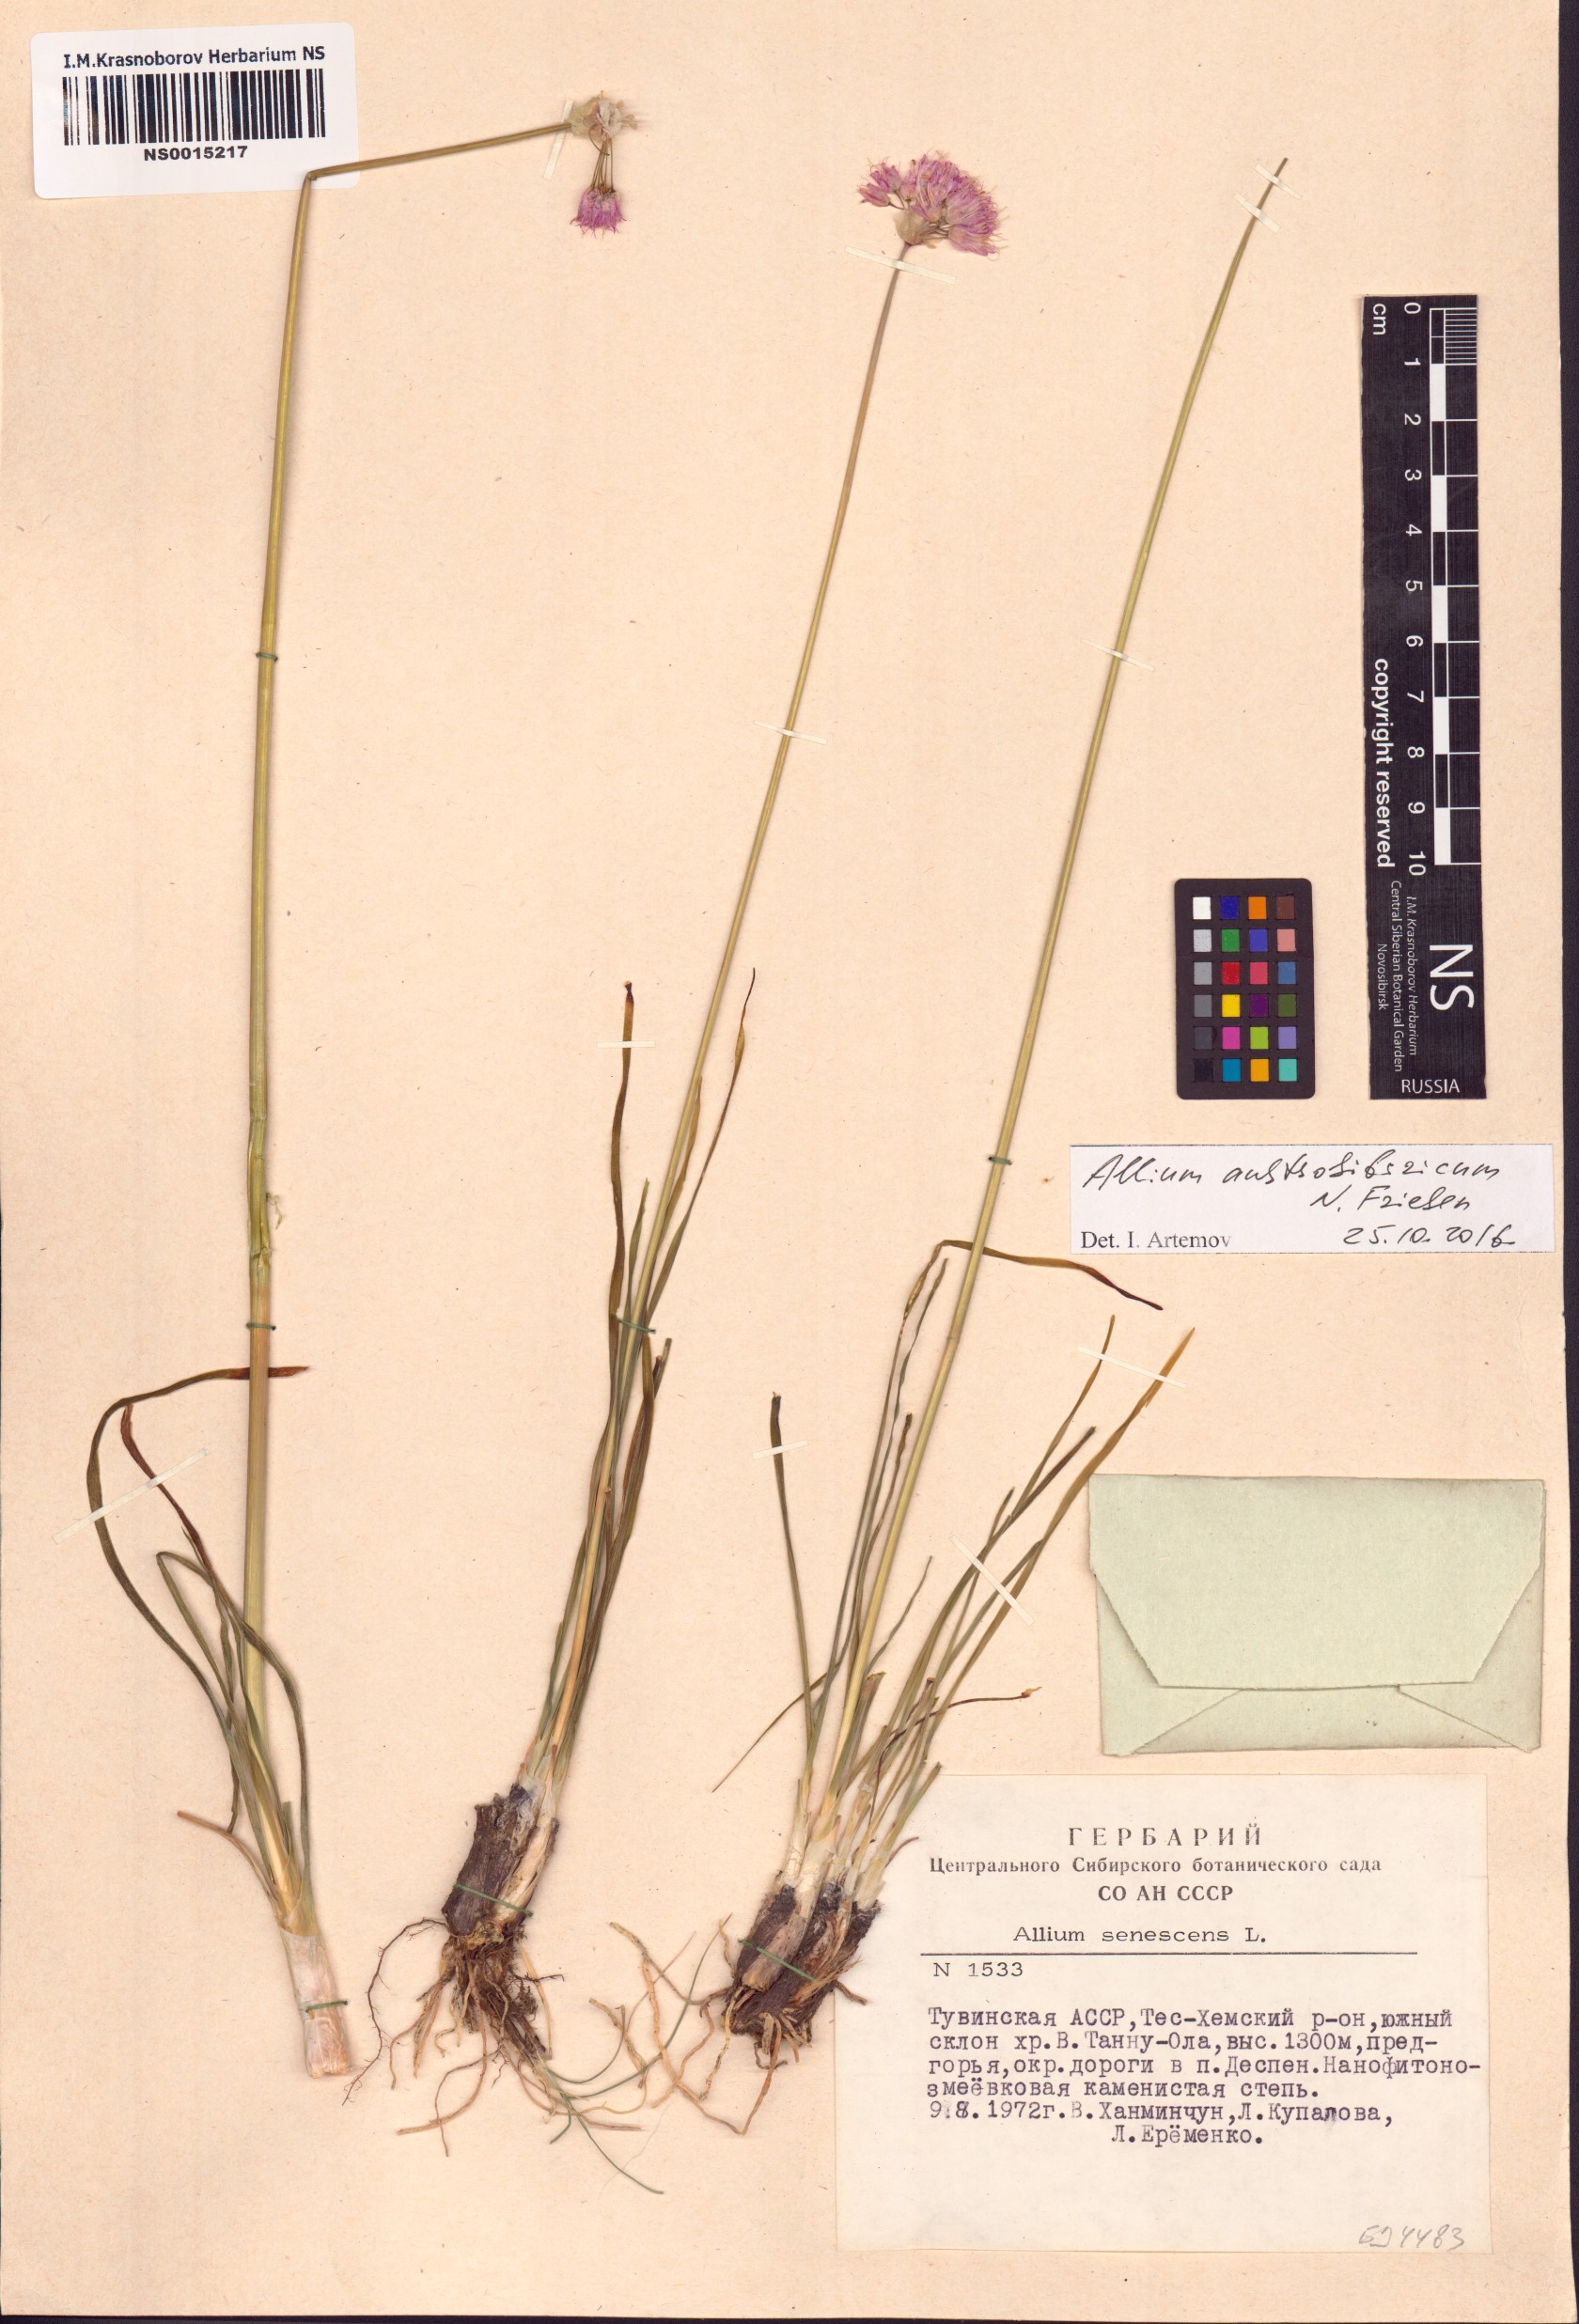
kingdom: Plantae
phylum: Tracheophyta
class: Liliopsida
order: Asparagales
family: Amaryllidaceae
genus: Allium
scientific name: Allium austrosibiricum
